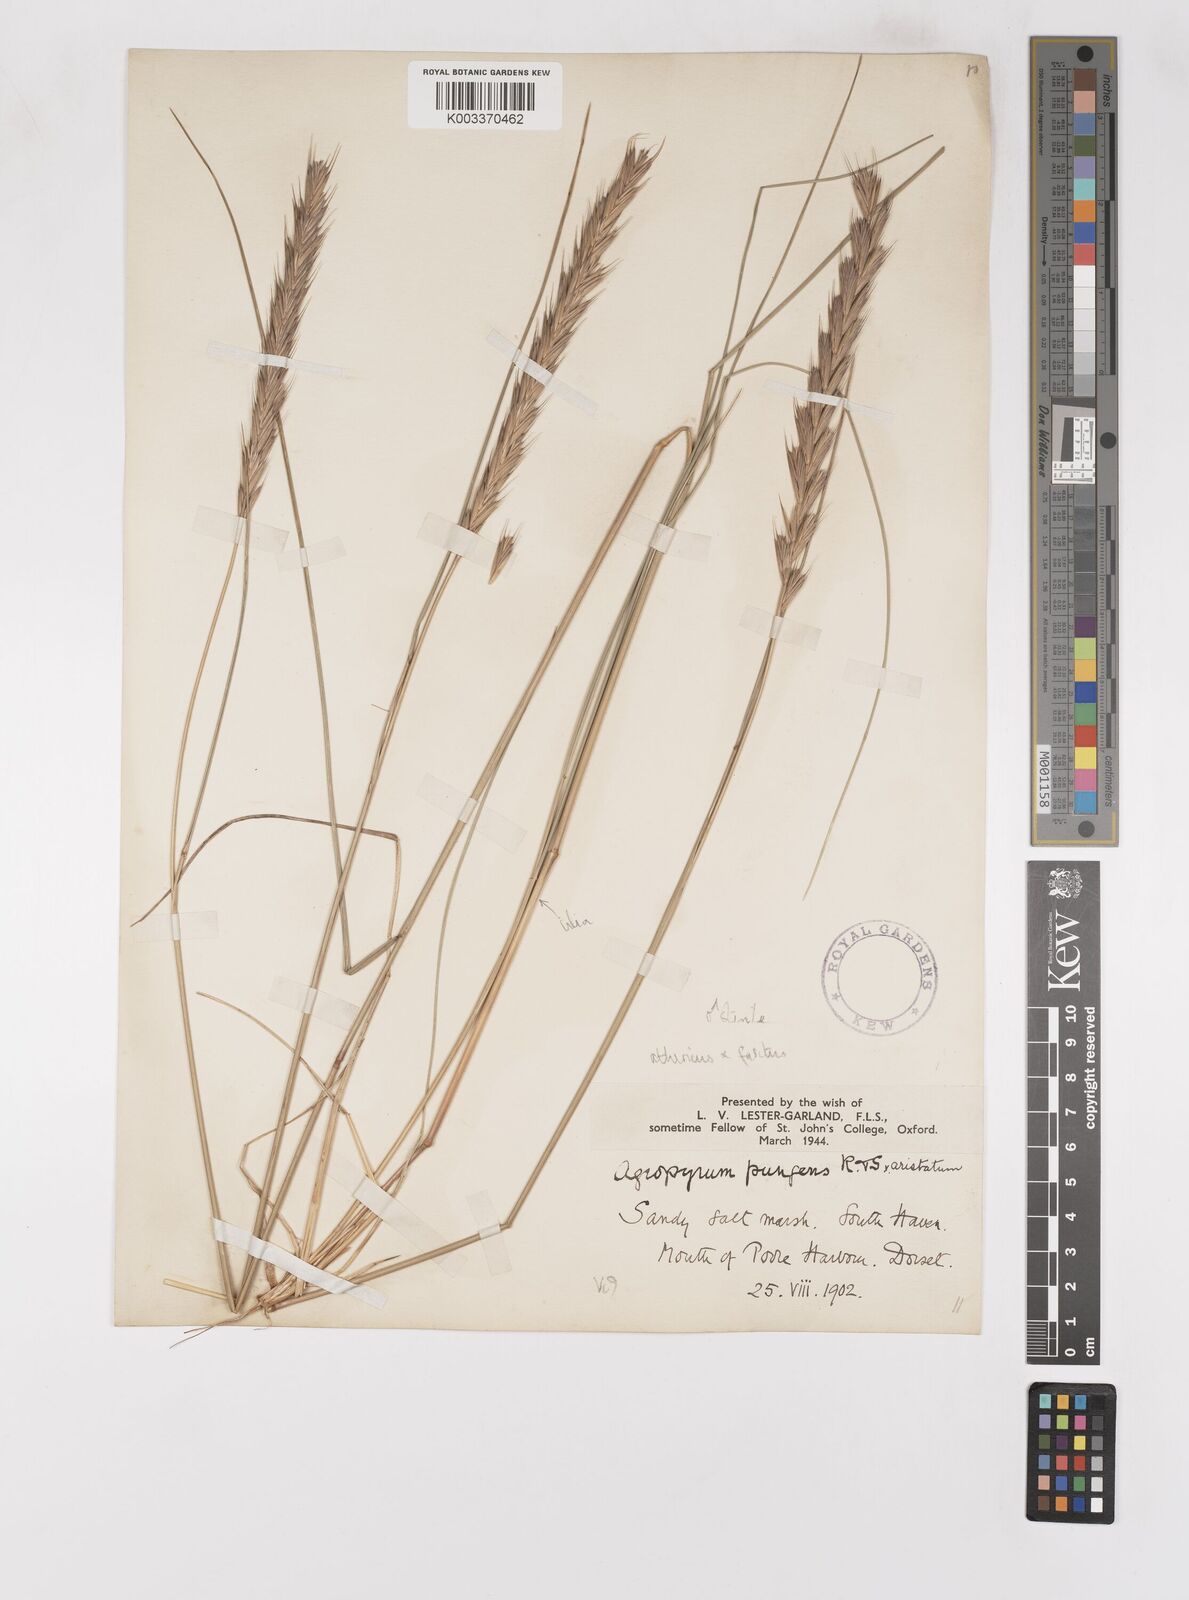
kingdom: Plantae
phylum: Tracheophyta
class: Liliopsida
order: Poales
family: Poaceae
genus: Thinoelymus
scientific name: Thinoelymus obtusiusculus
